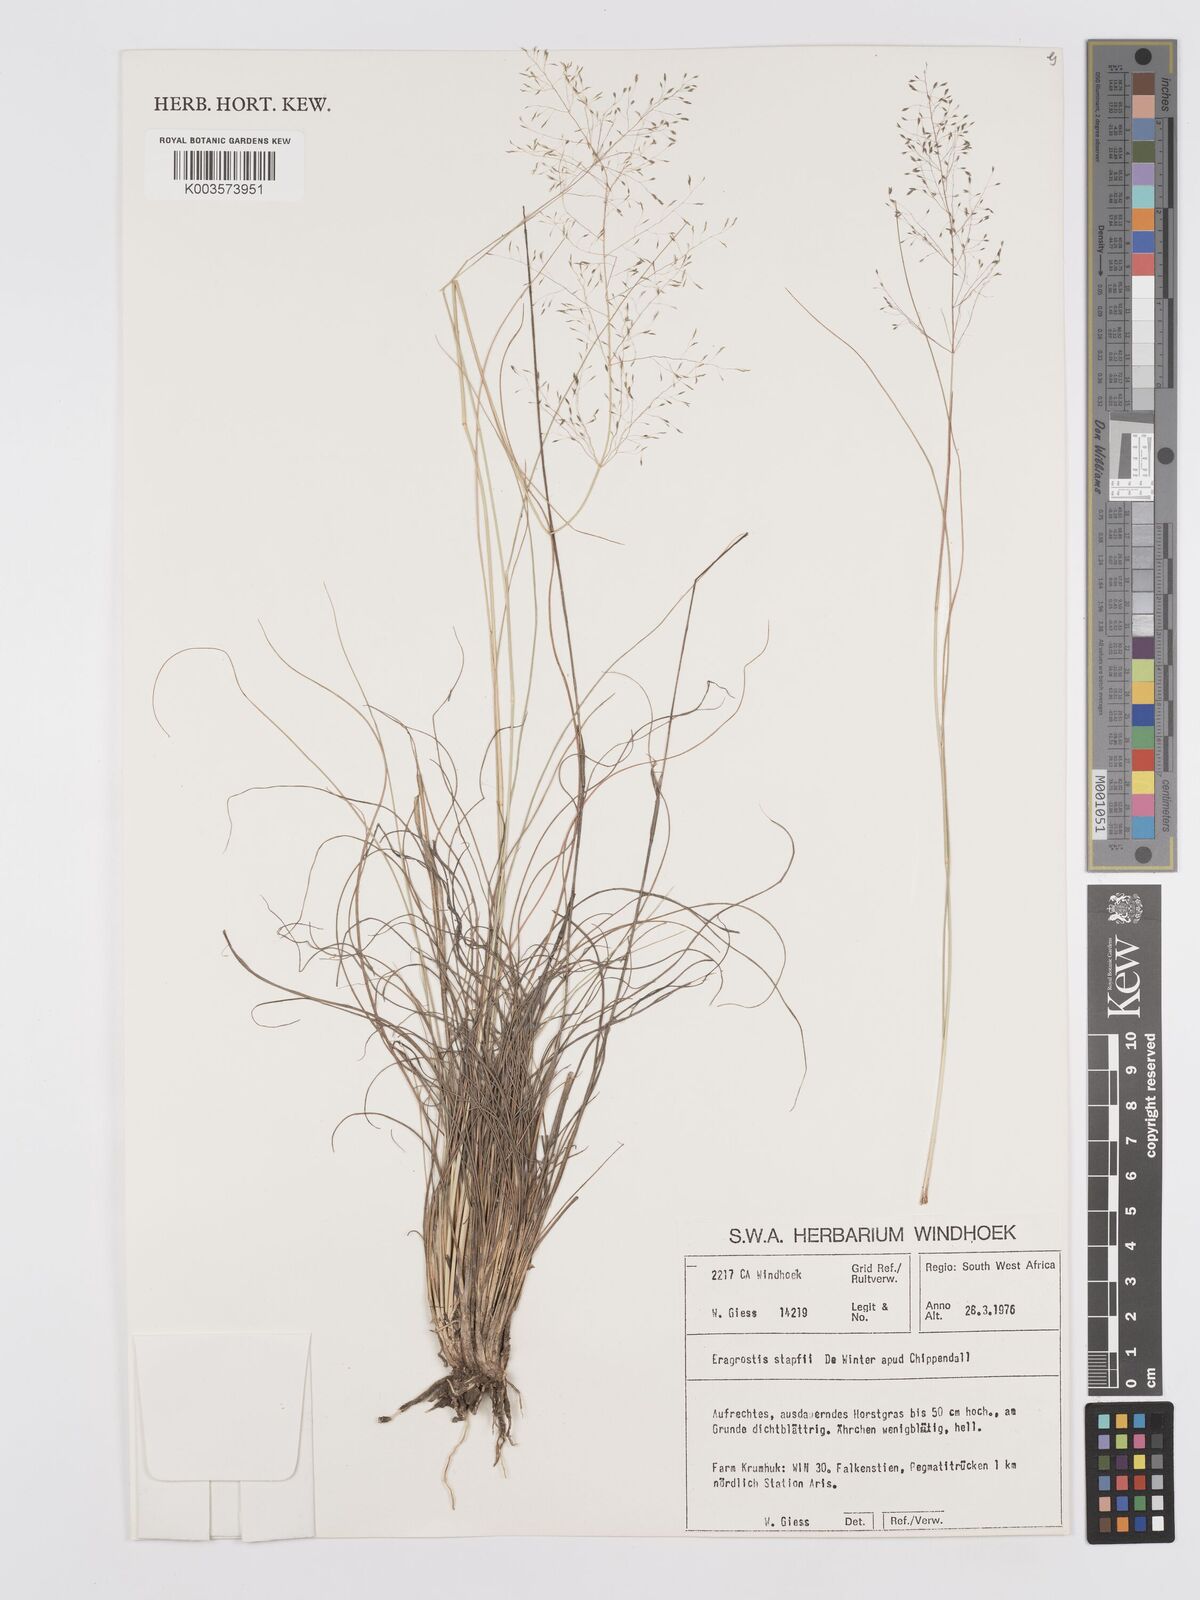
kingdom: Plantae
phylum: Tracheophyta
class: Liliopsida
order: Poales
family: Poaceae
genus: Eragrostis
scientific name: Eragrostis stapfii
